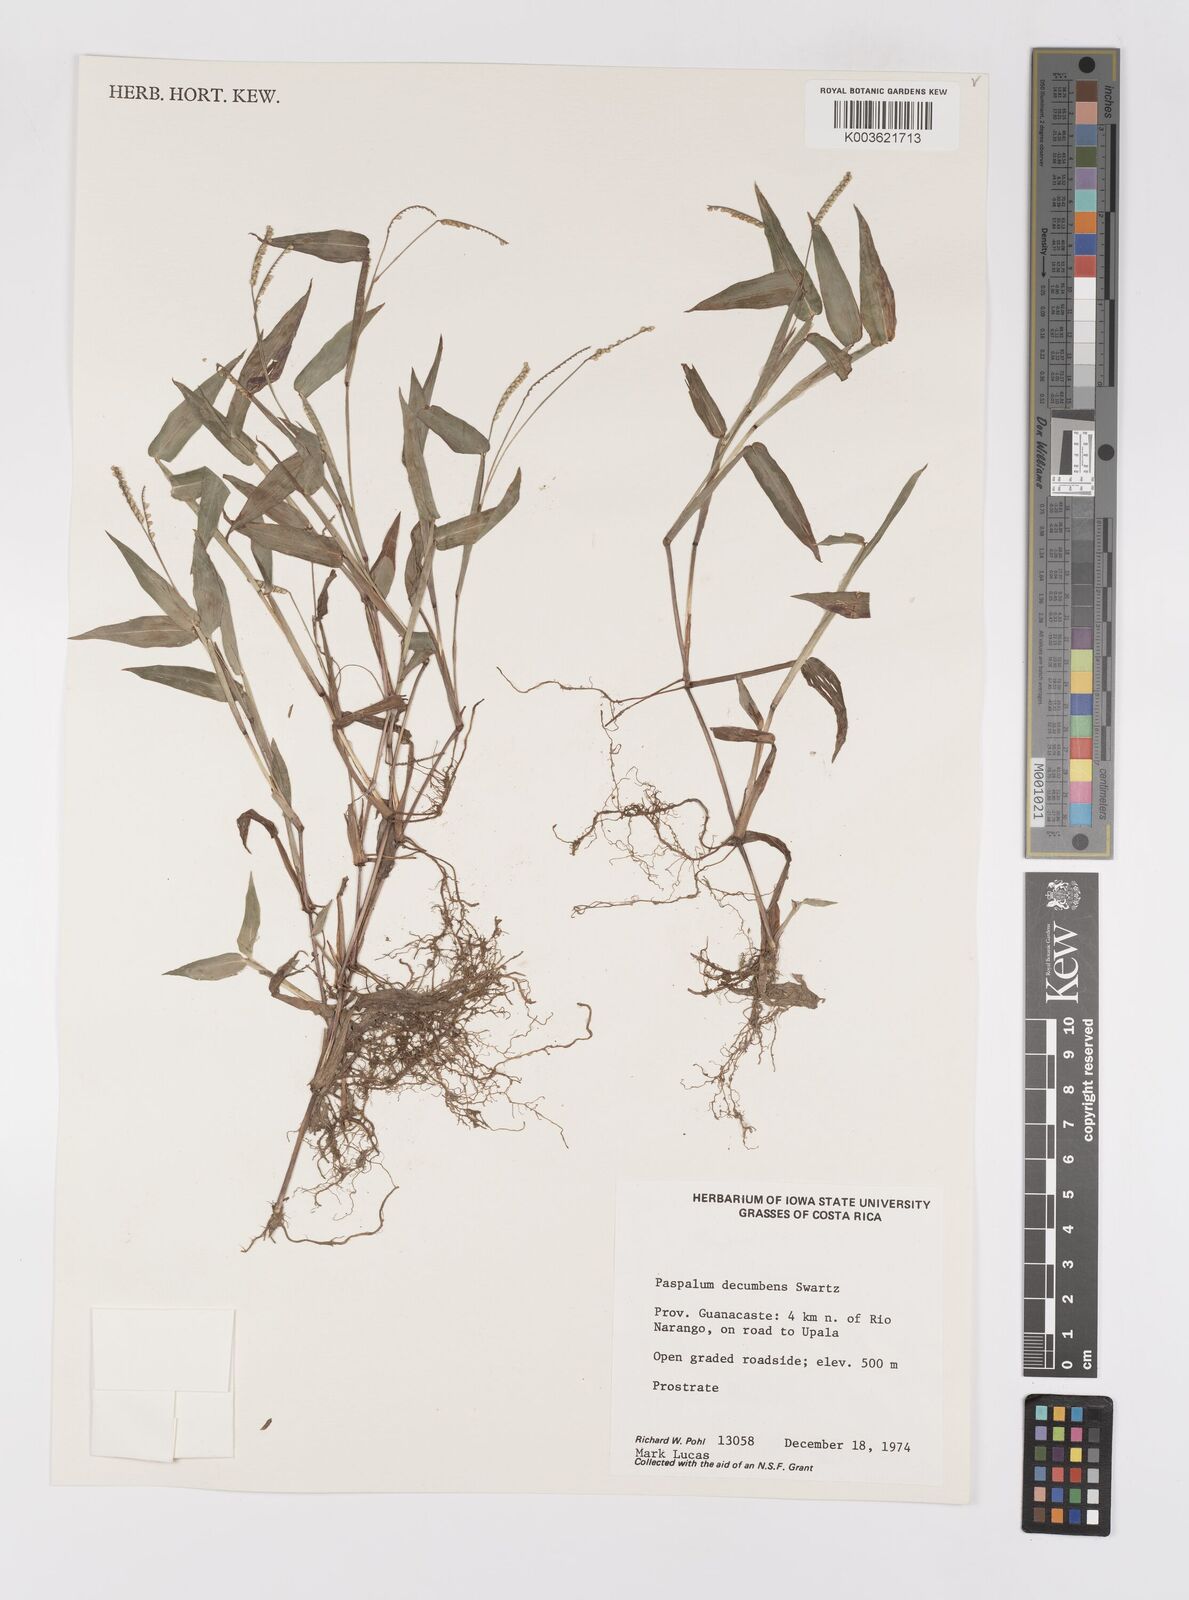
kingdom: Plantae
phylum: Tracheophyta
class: Liliopsida
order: Poales
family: Poaceae
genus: Paspalum
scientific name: Paspalum
